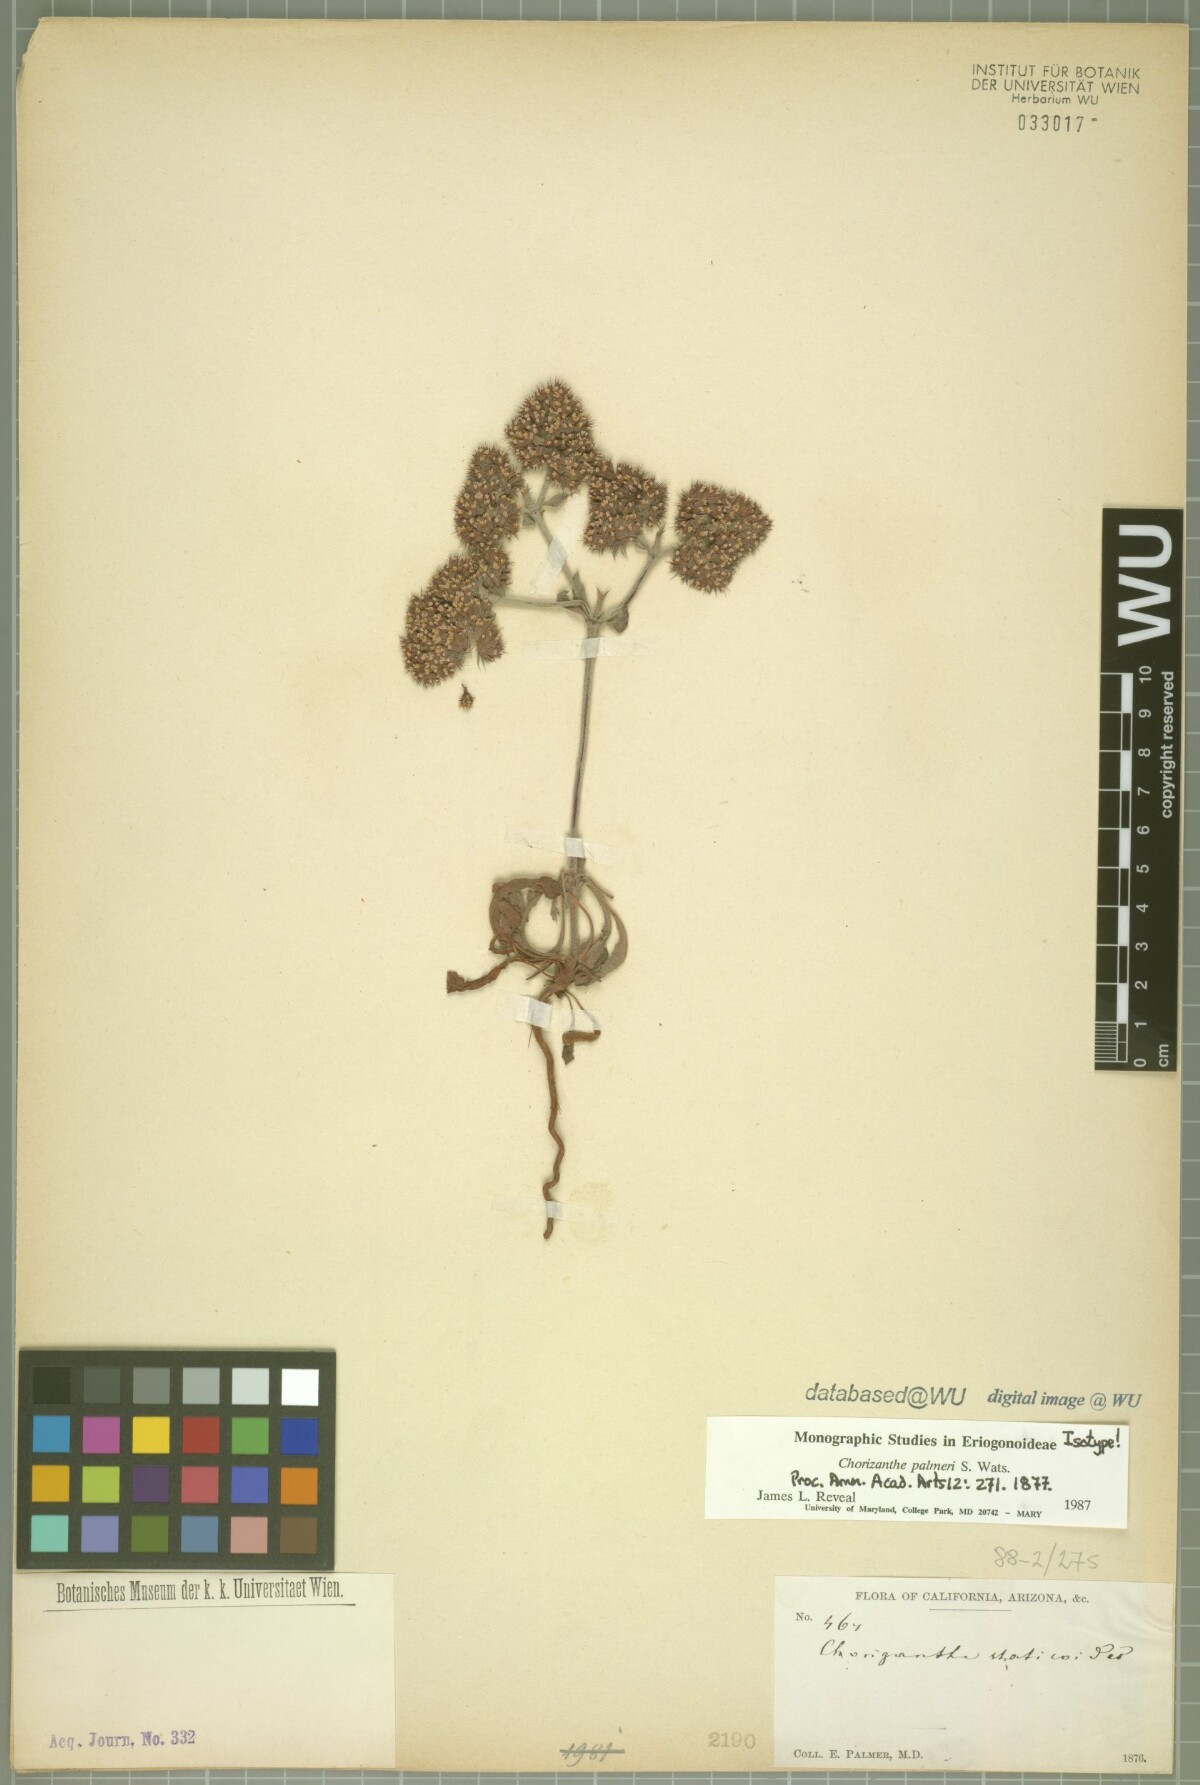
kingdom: Plantae
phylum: Tracheophyta
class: Magnoliopsida
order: Caryophyllales
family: Polygonaceae
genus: Chorizanthe
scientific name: Chorizanthe palmeri
